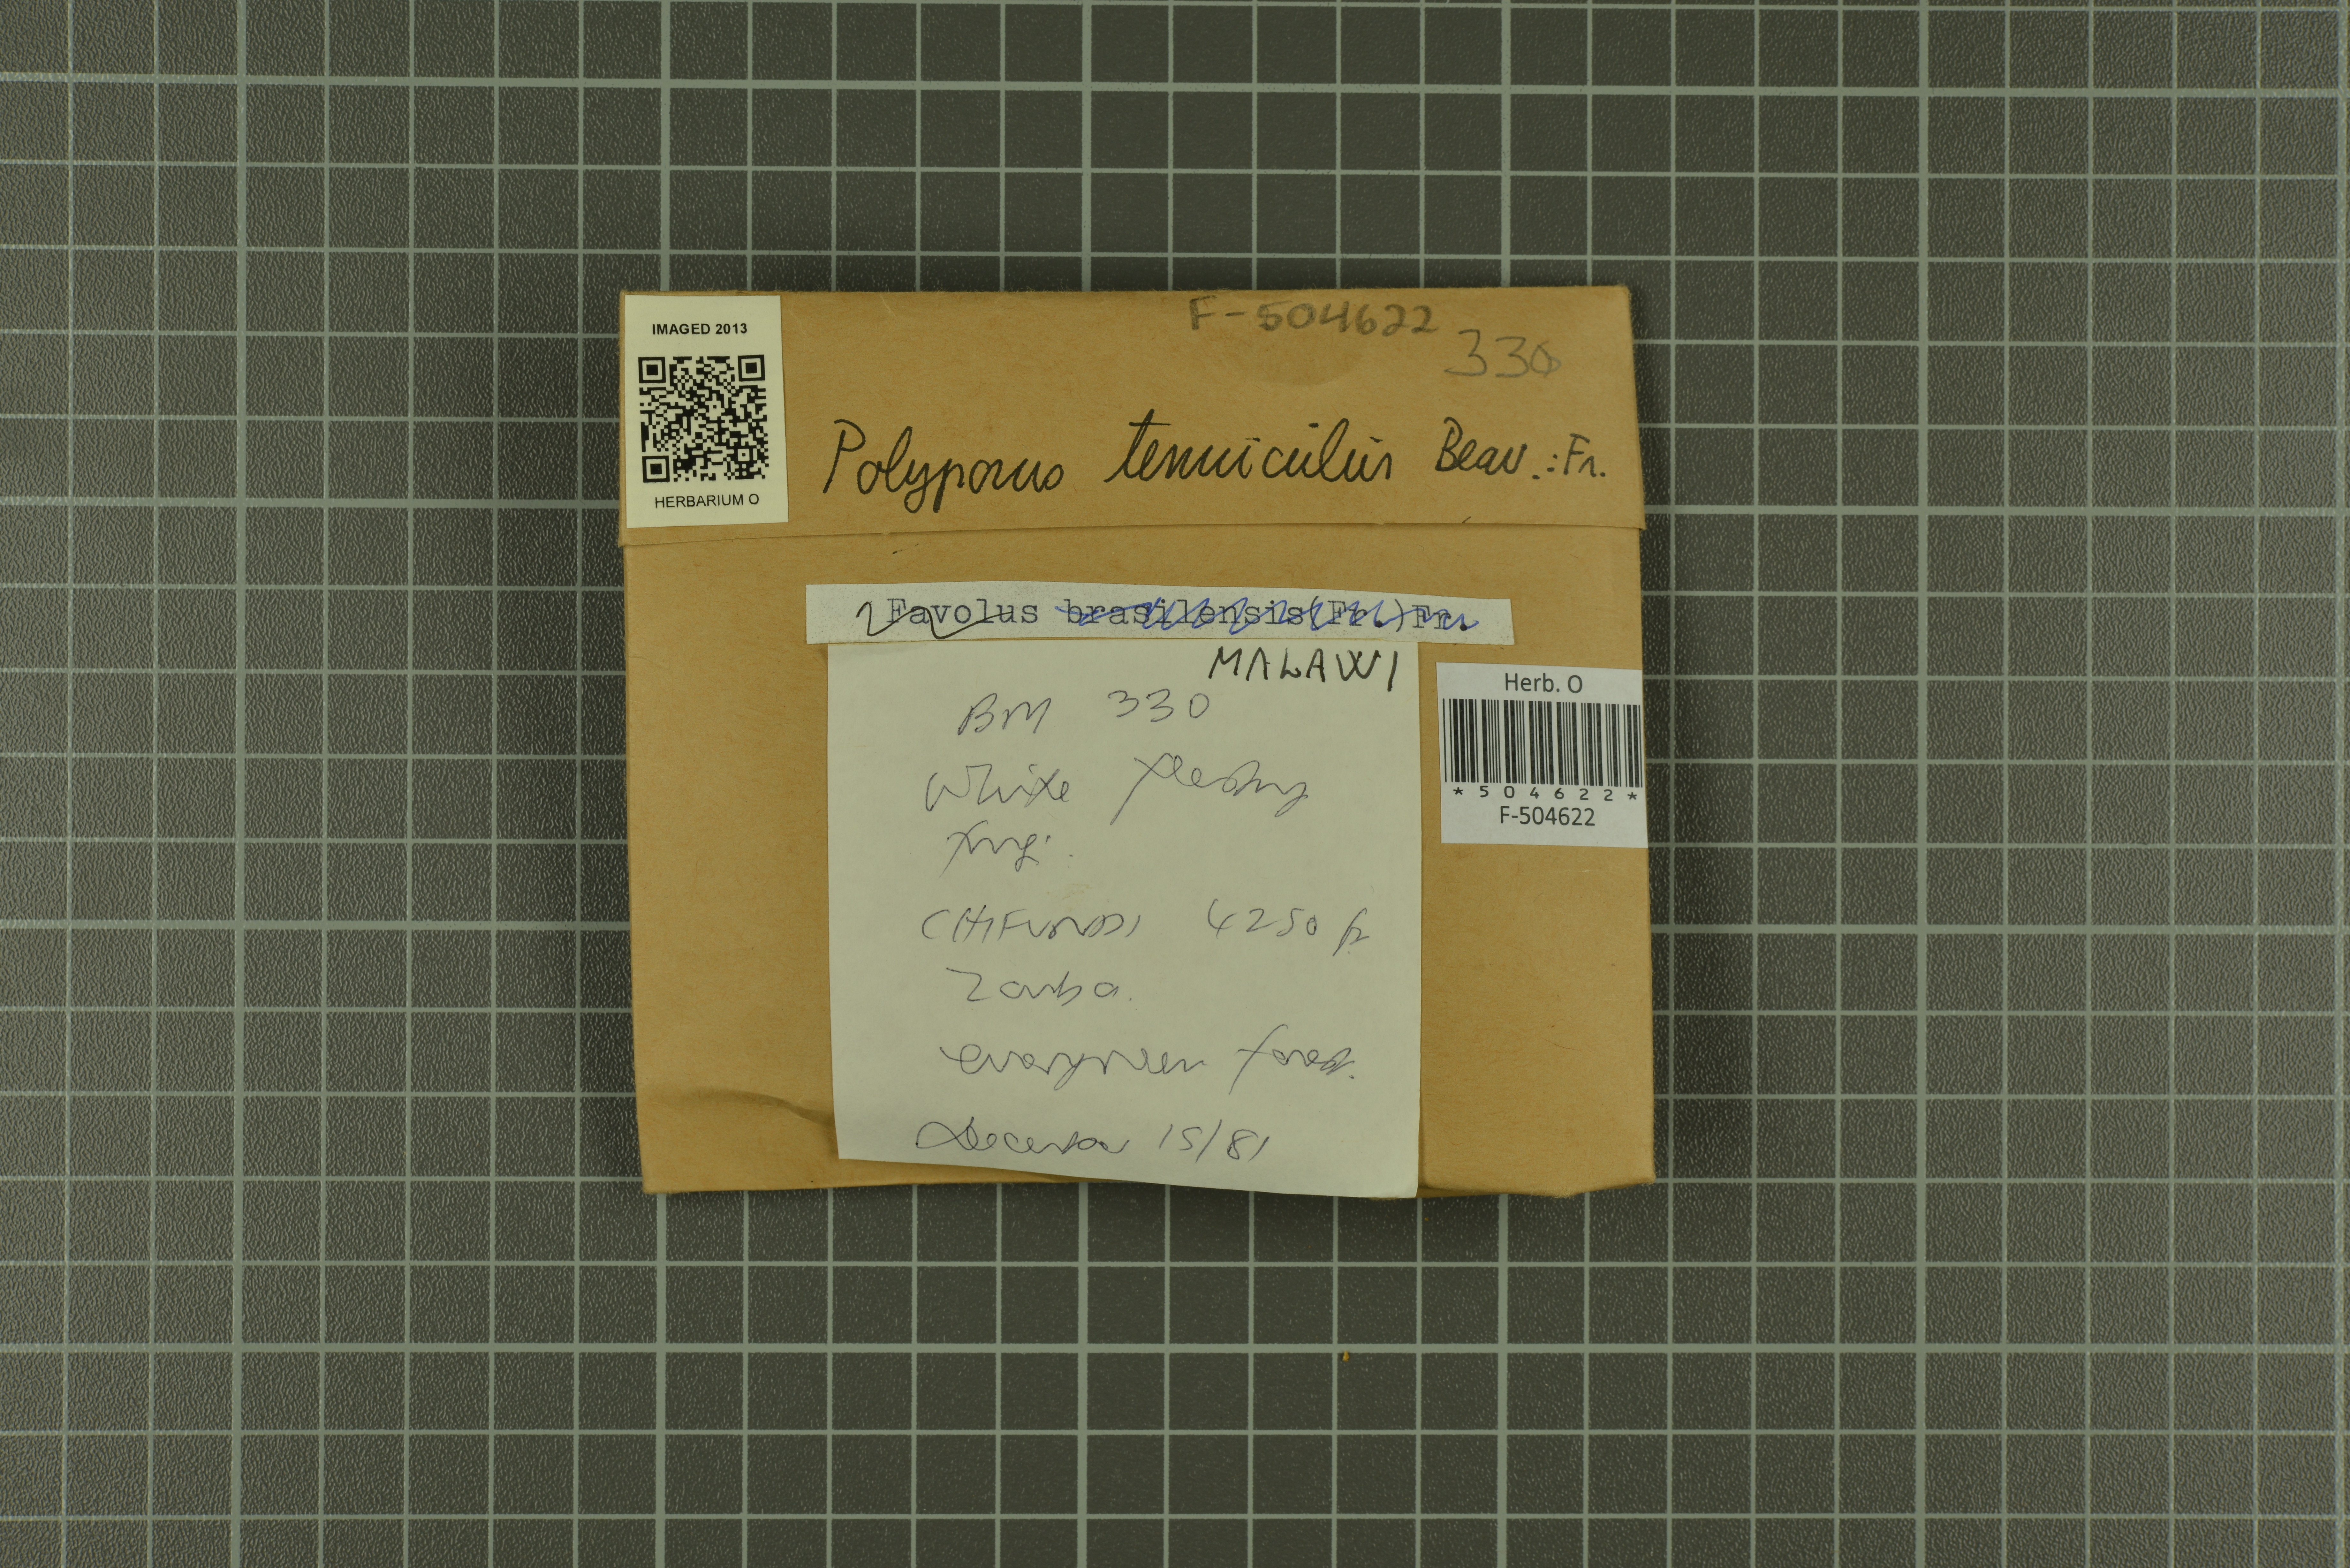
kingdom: Fungi
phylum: Basidiomycota
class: Agaricomycetes
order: Polyporales
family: Polyporaceae
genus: Favolus
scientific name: Favolus tenuiculus
